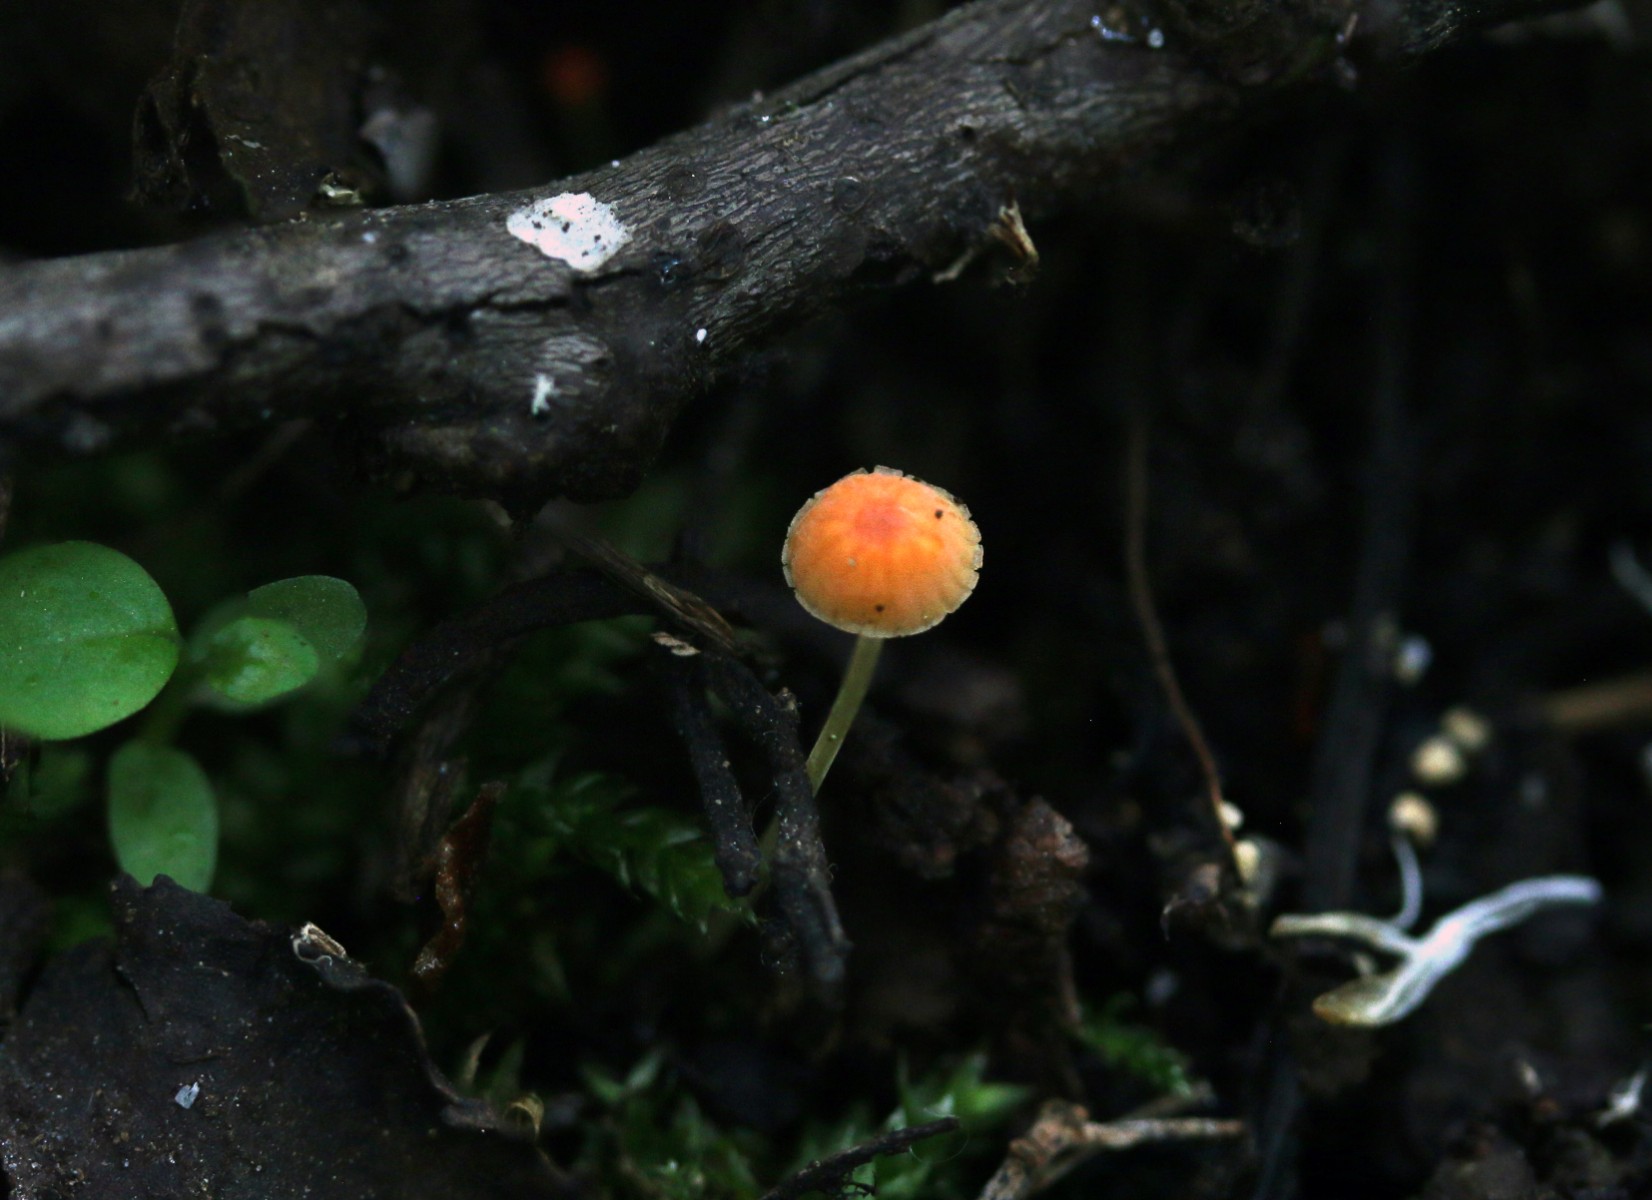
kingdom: Fungi
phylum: Basidiomycota
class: Agaricomycetes
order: Agaricales
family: Mycenaceae
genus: Mycena
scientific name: Mycena acicula
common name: orange huesvamp
